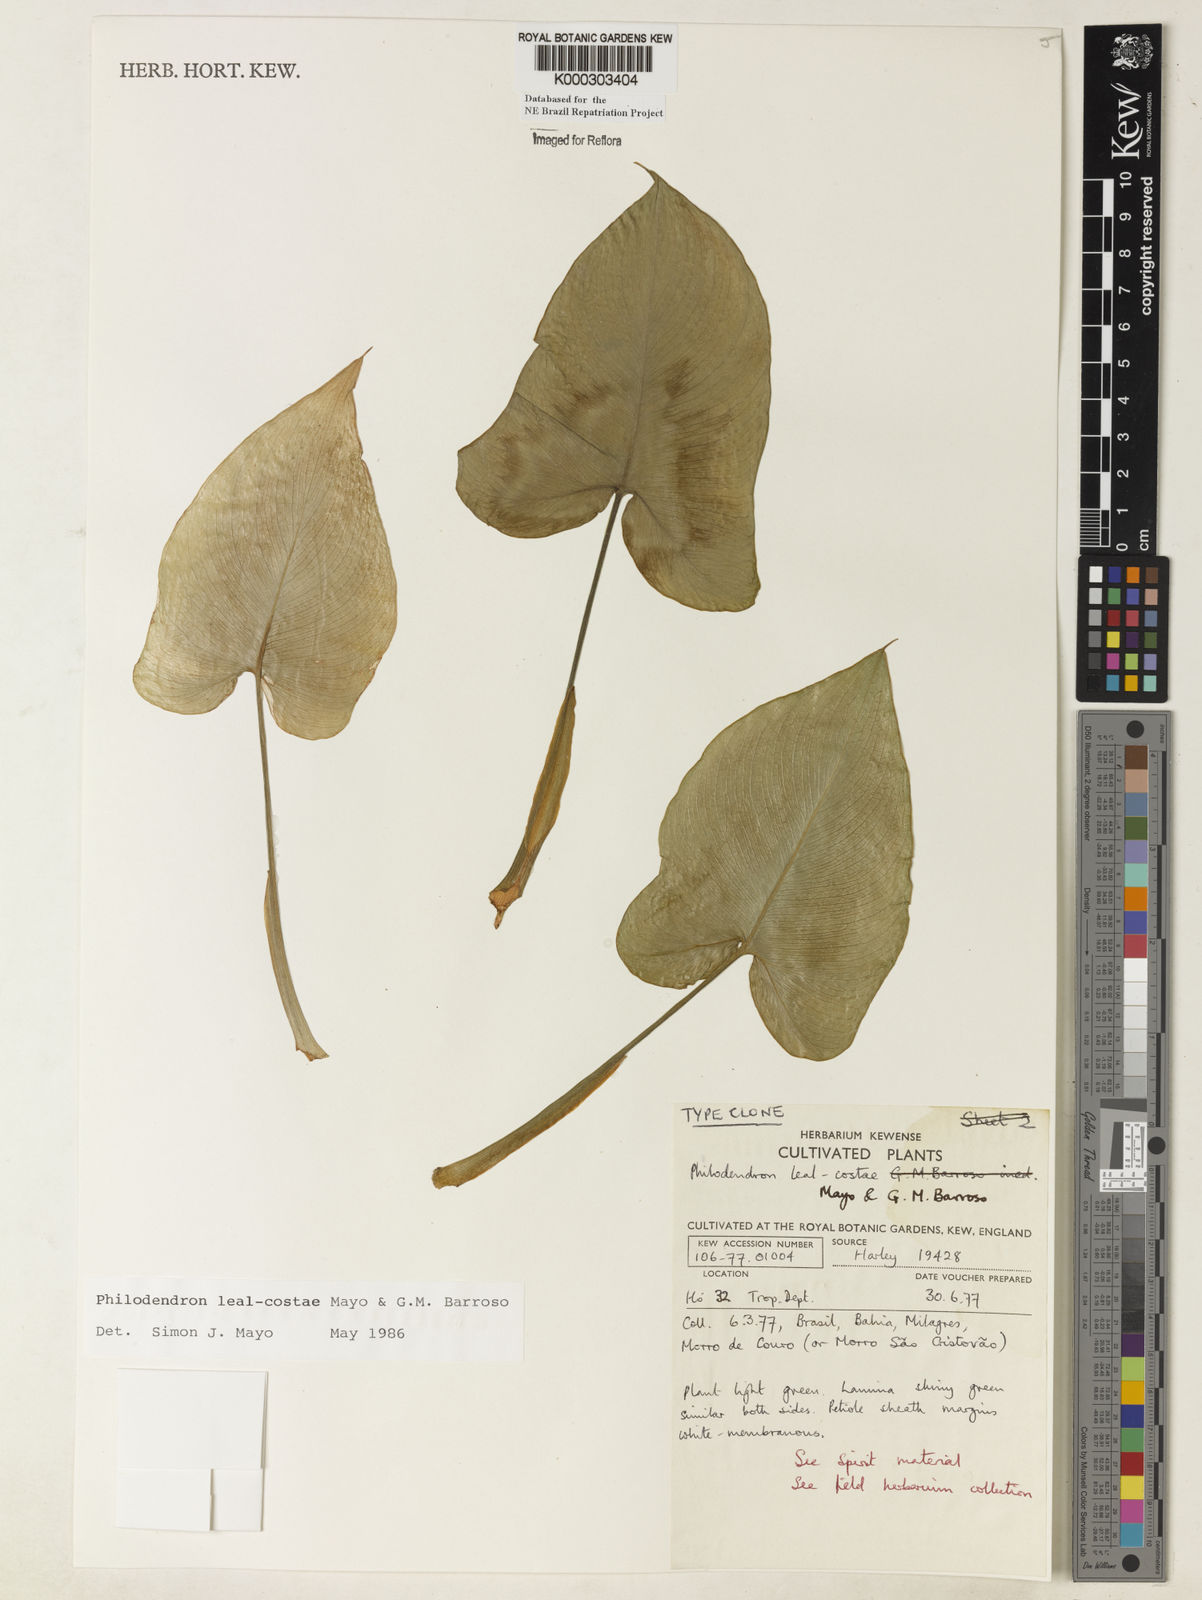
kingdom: Plantae
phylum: Tracheophyta
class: Liliopsida
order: Alismatales
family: Araceae
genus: Thaumatophyllum
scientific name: Thaumatophyllum leal-costae
